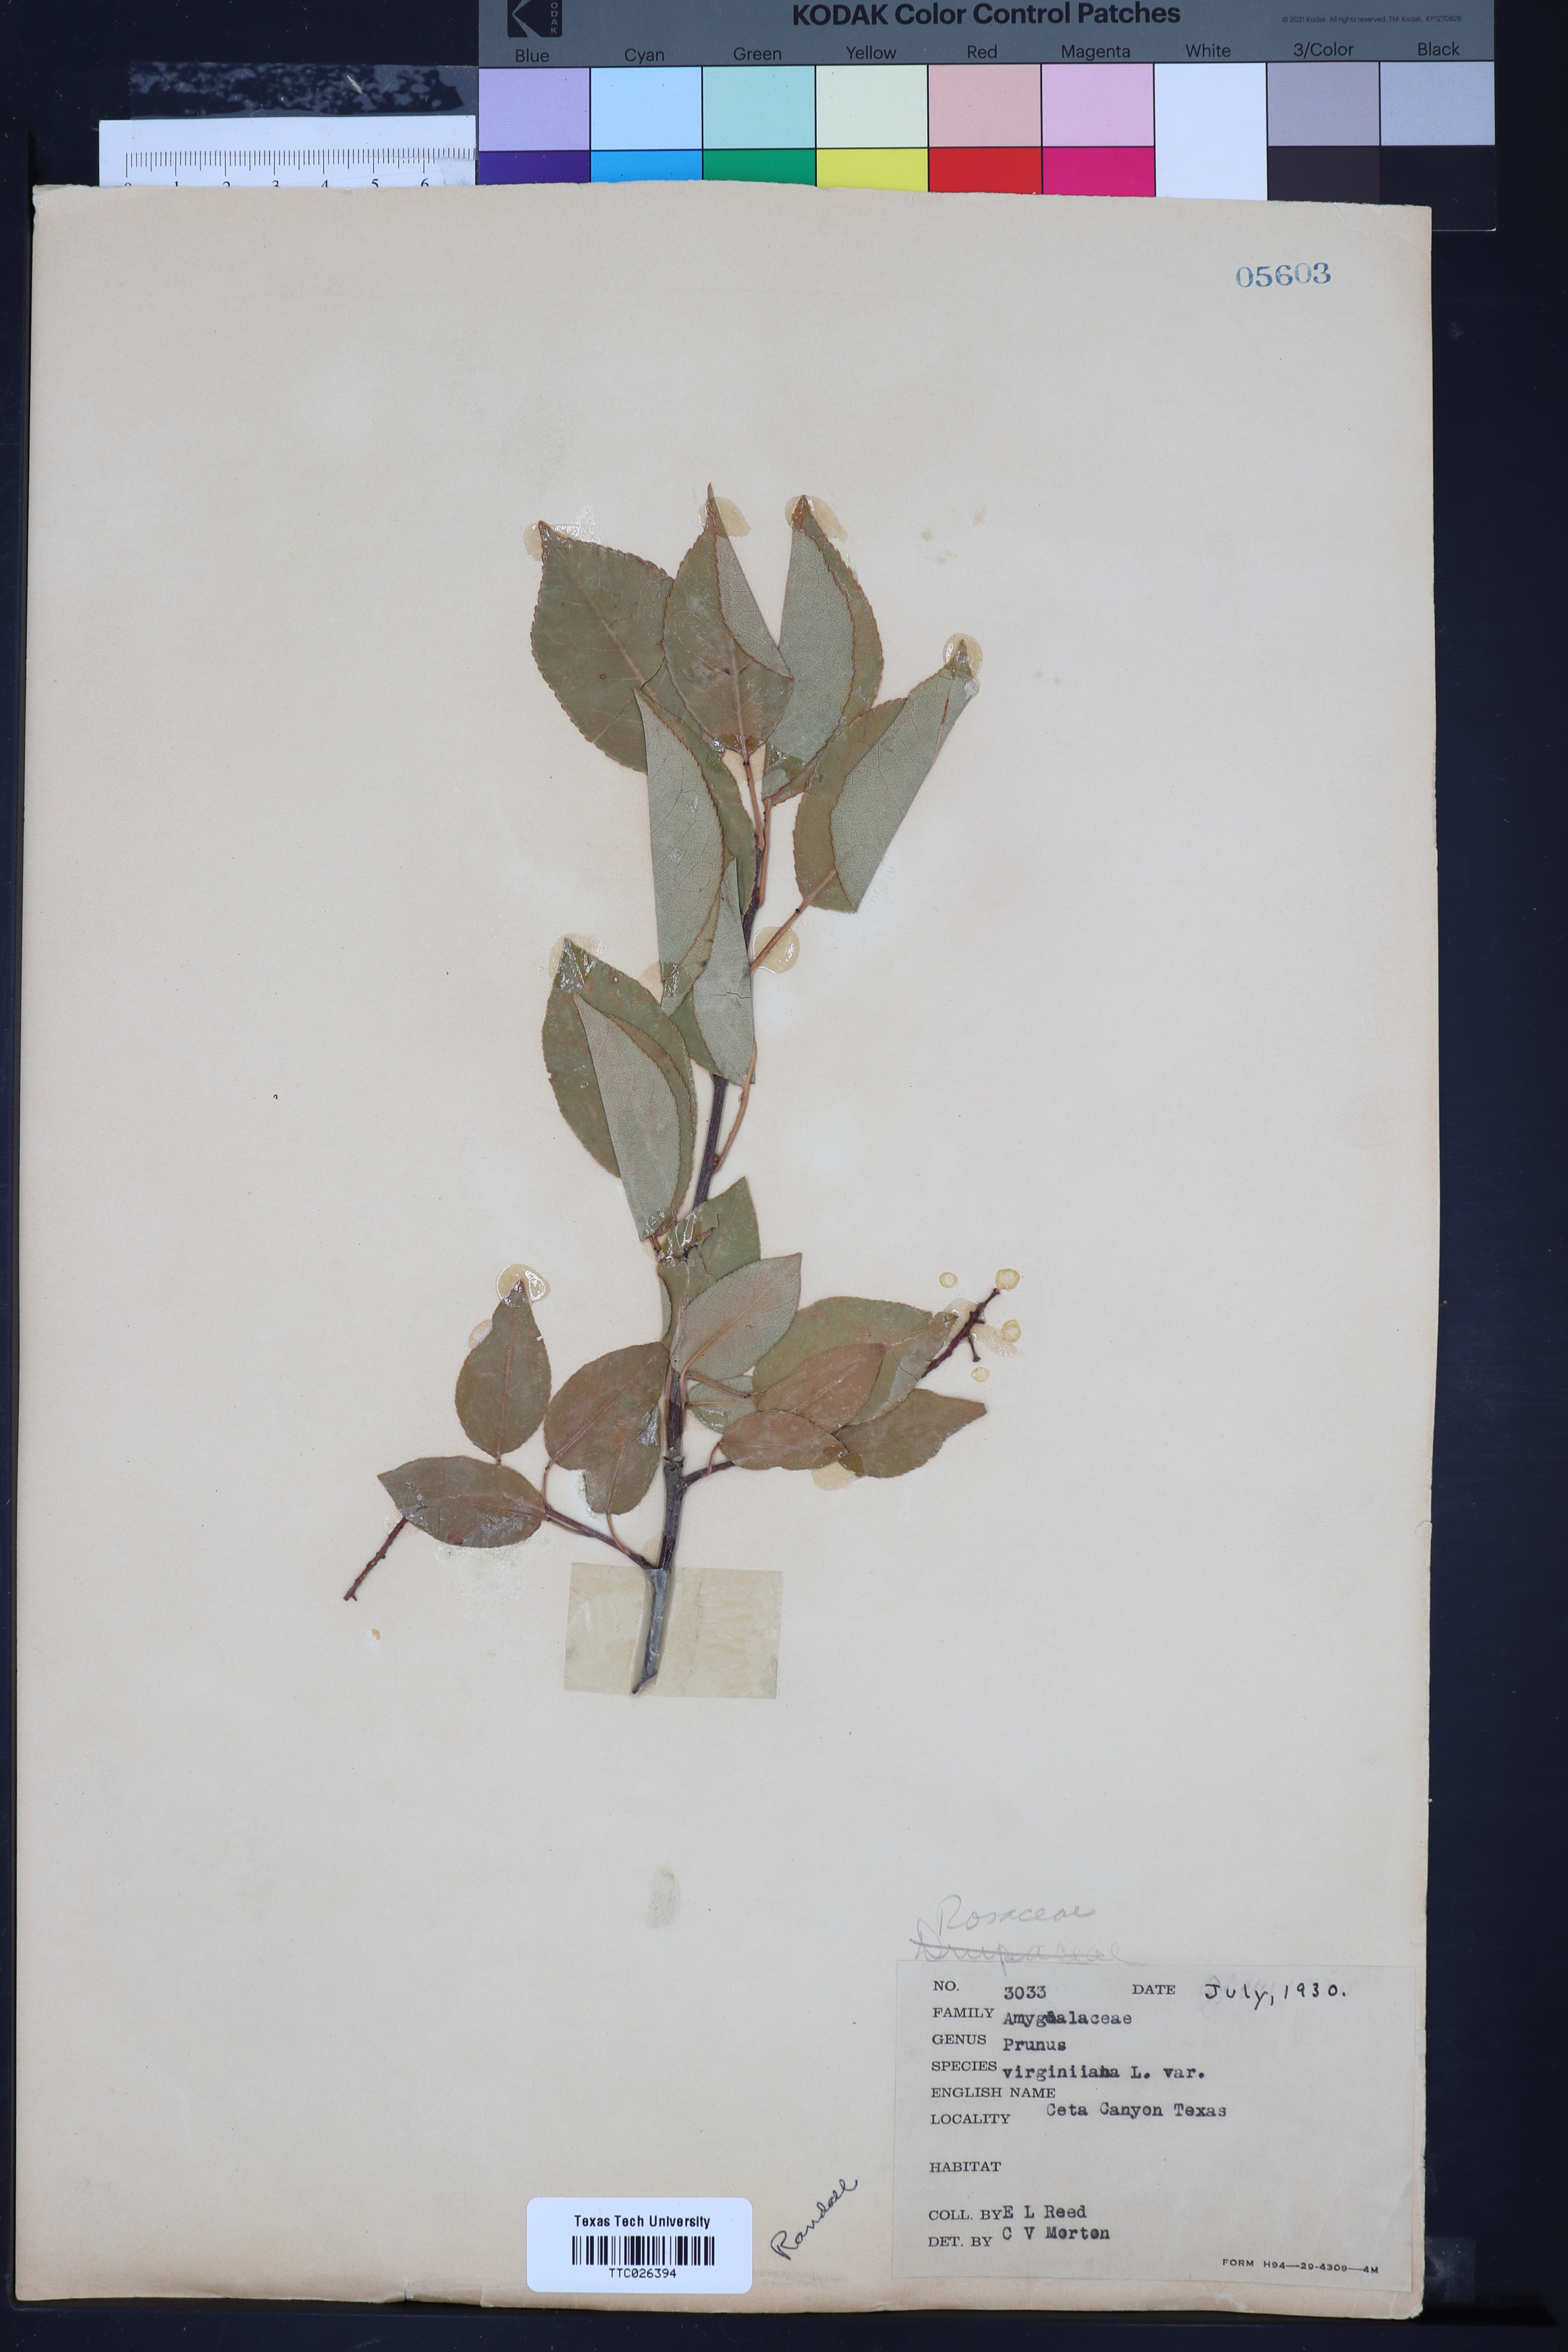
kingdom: Plantae
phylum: Tracheophyta
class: Magnoliopsida
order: Rosales
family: Rosaceae
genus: Prunus
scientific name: Prunus virginiana
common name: Chokecherry
